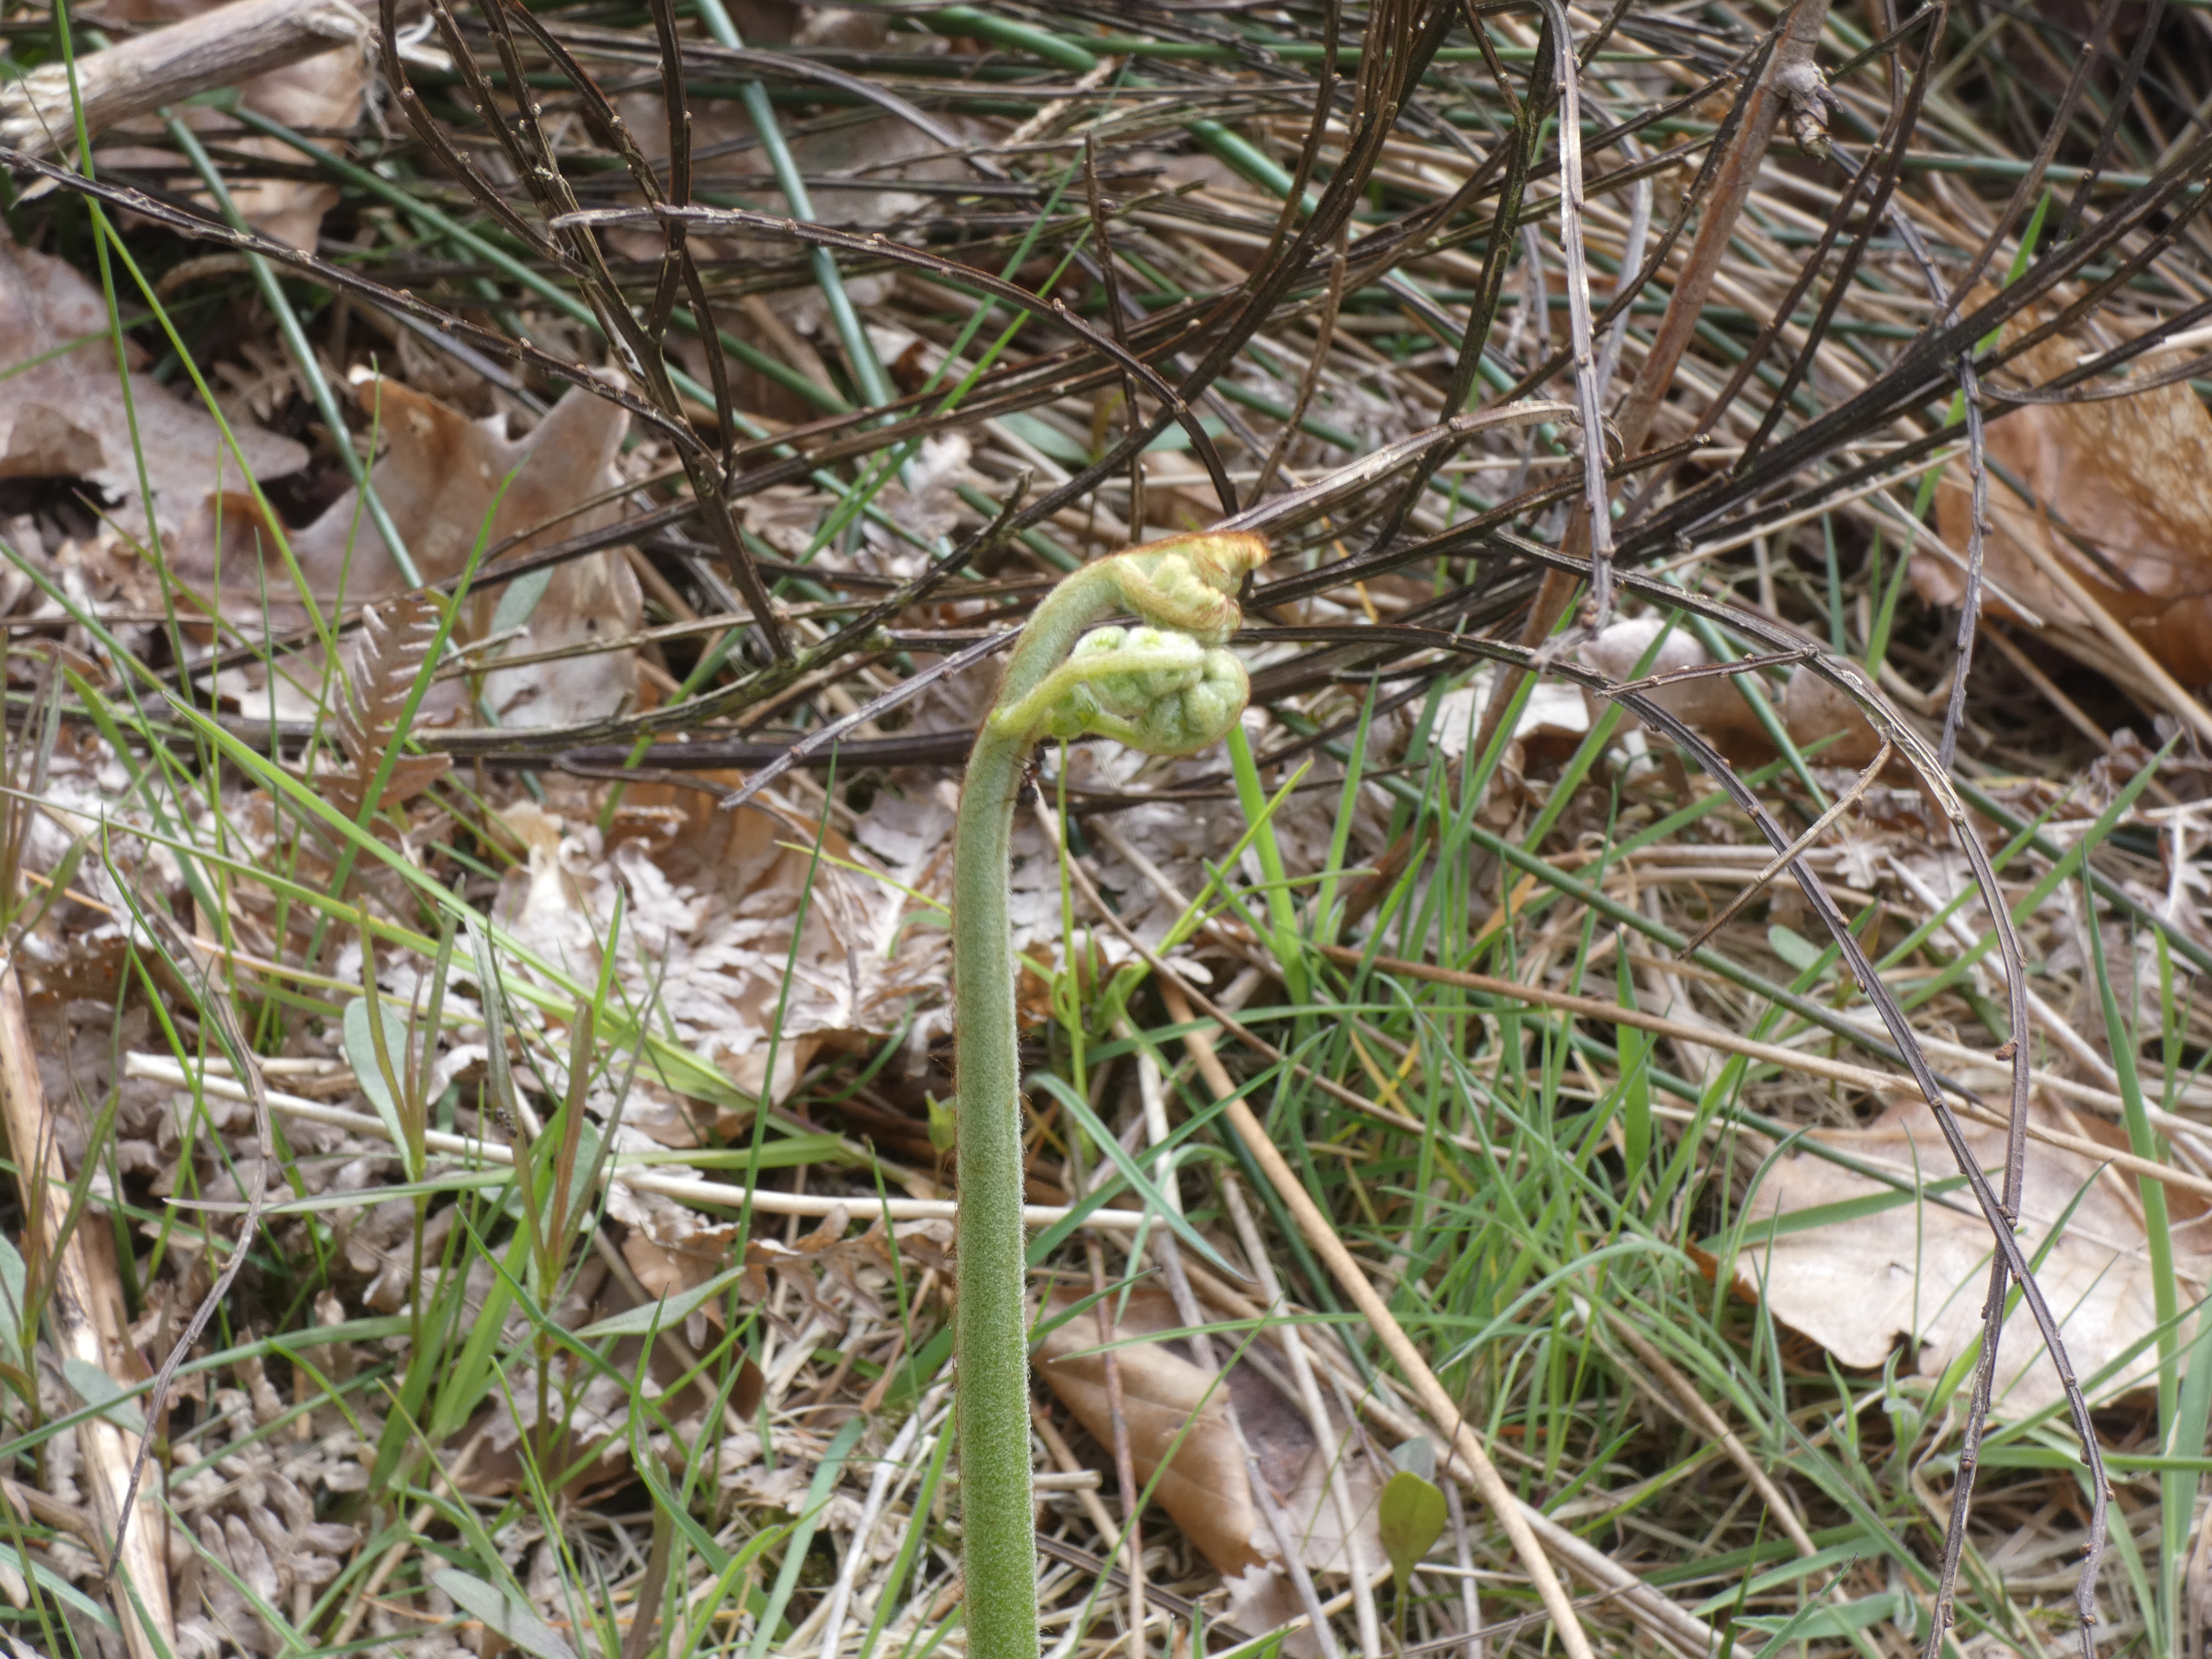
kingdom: Plantae
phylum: Tracheophyta
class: Polypodiopsida
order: Polypodiales
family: Dennstaedtiaceae
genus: Pteridium
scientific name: Pteridium aquilinum
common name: Ørnebregne
